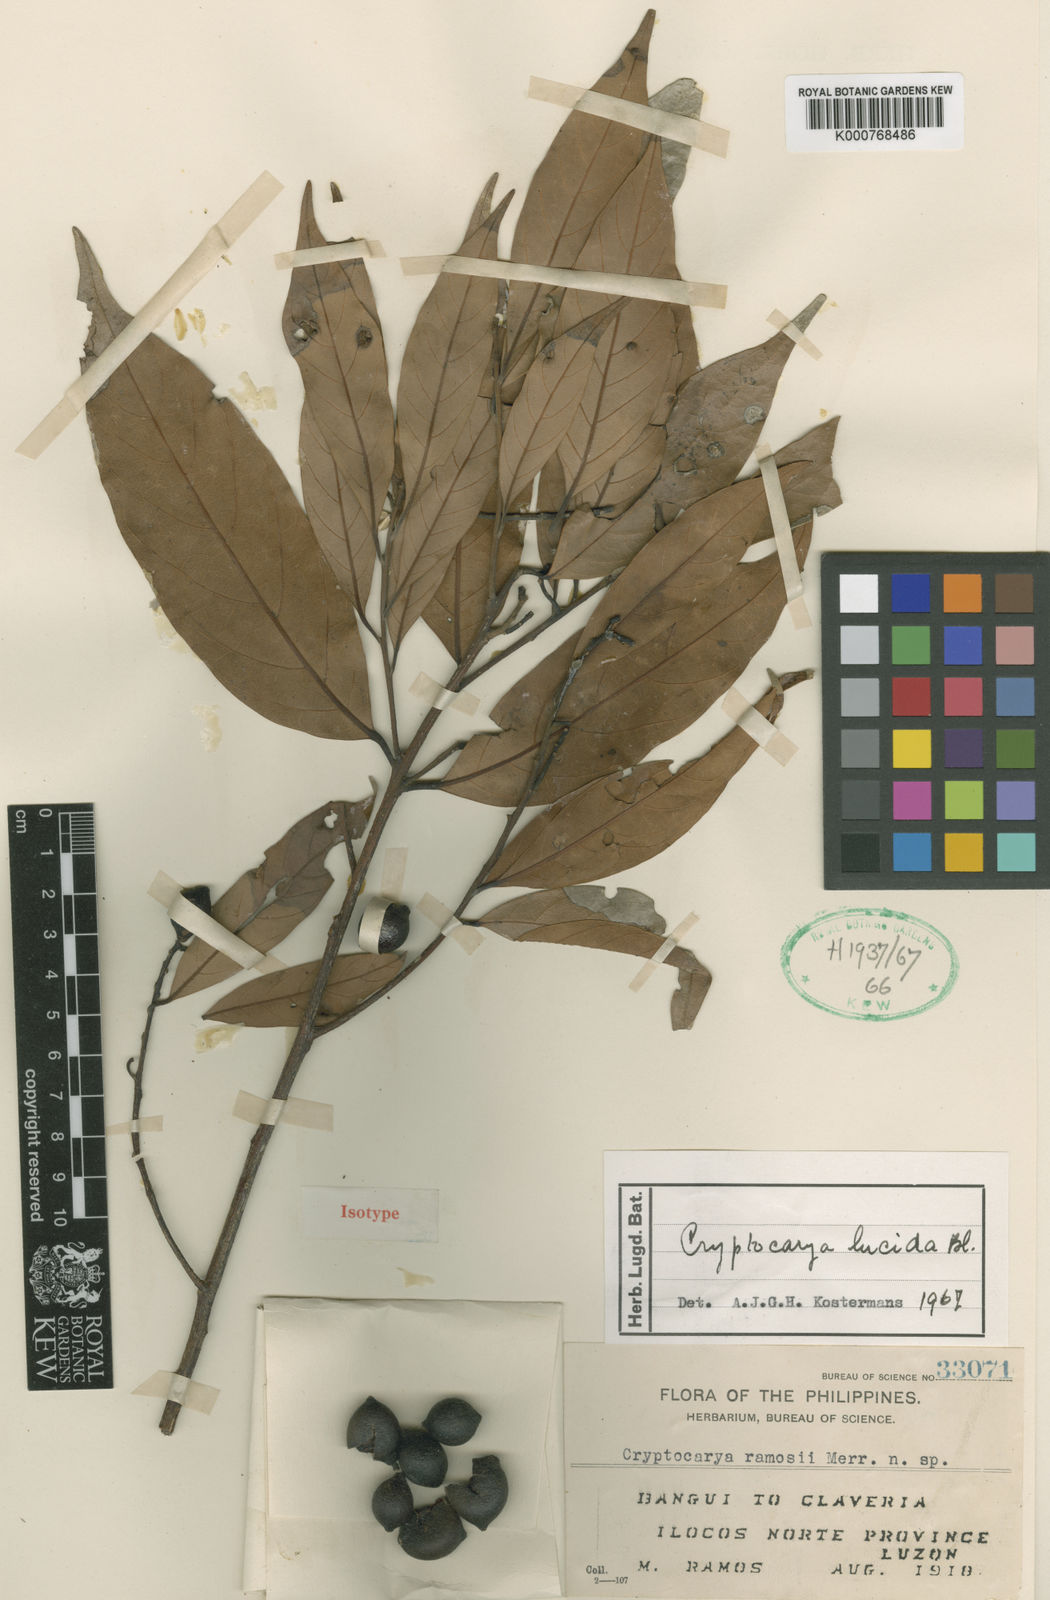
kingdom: Plantae
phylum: Tracheophyta
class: Magnoliopsida
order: Laurales
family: Lauraceae
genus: Cryptocarya
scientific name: Cryptocarya lucida
